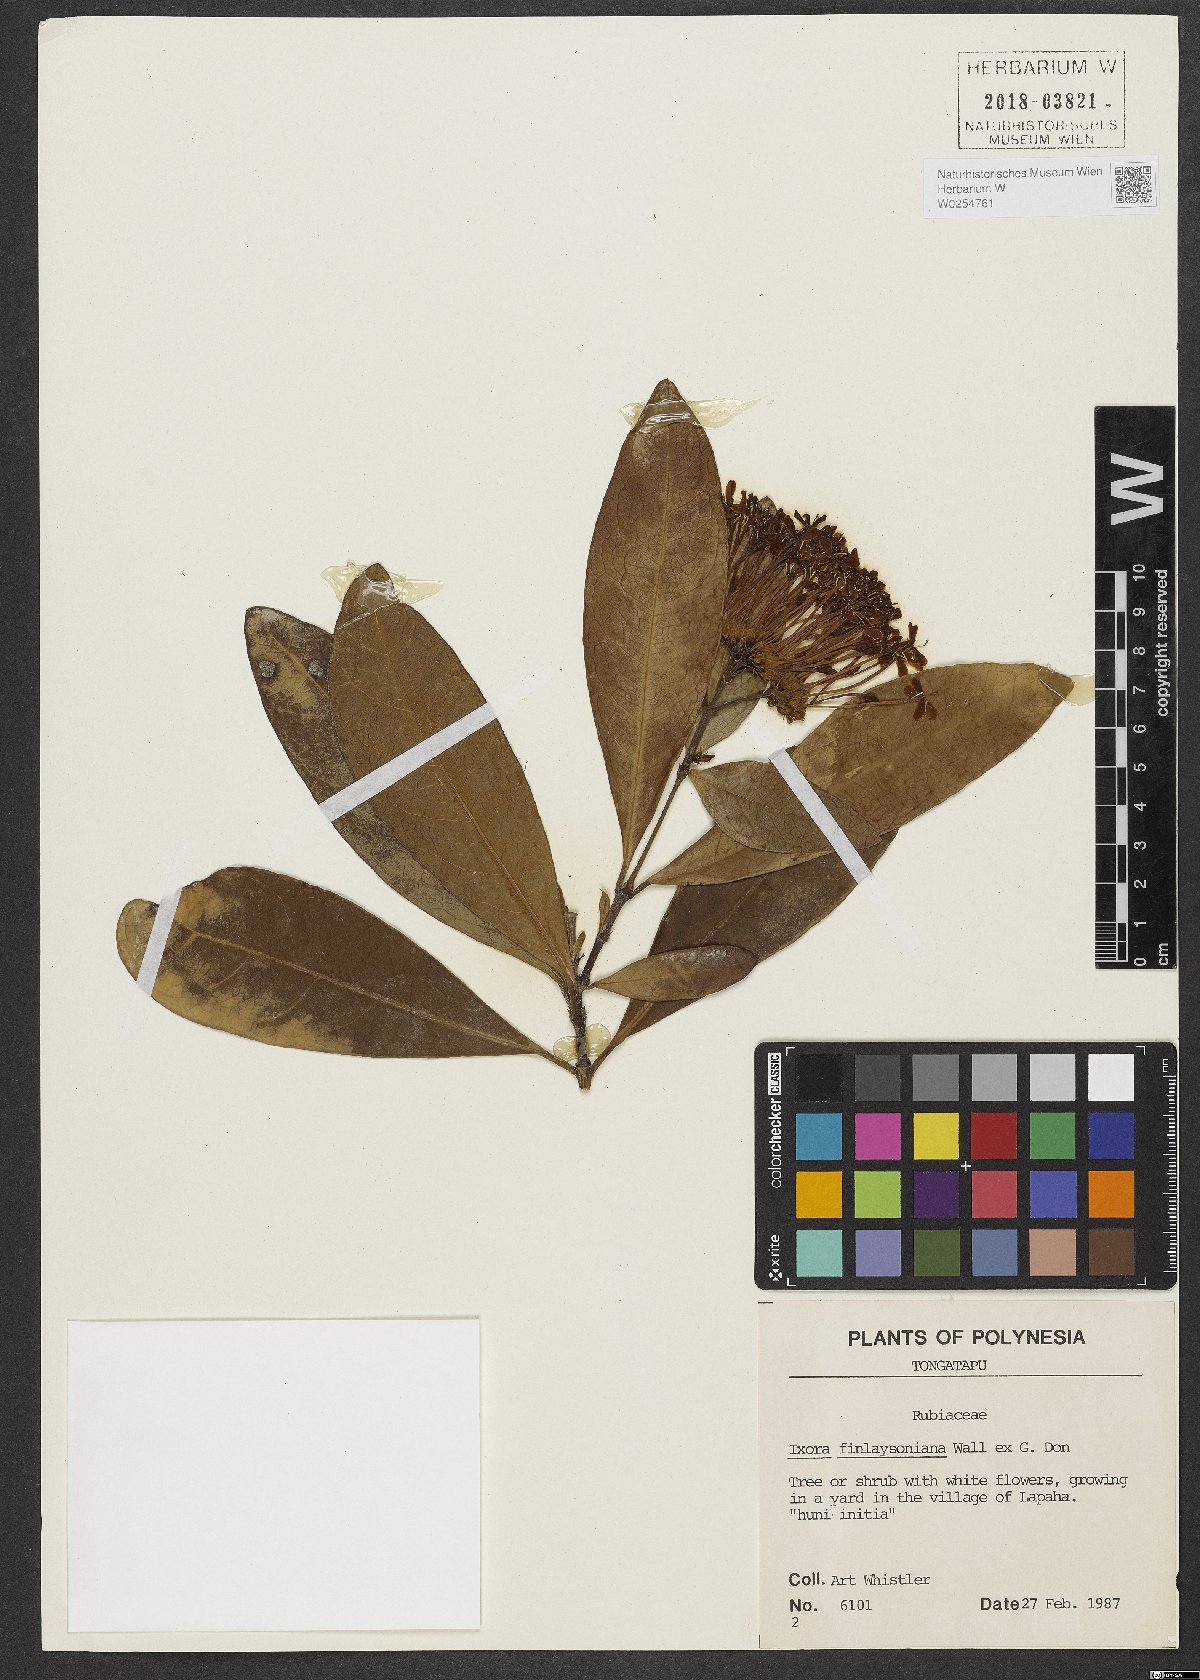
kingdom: Plantae
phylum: Tracheophyta
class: Magnoliopsida
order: Gentianales
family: Rubiaceae
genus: Ixora
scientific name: Ixora finlaysoniana
